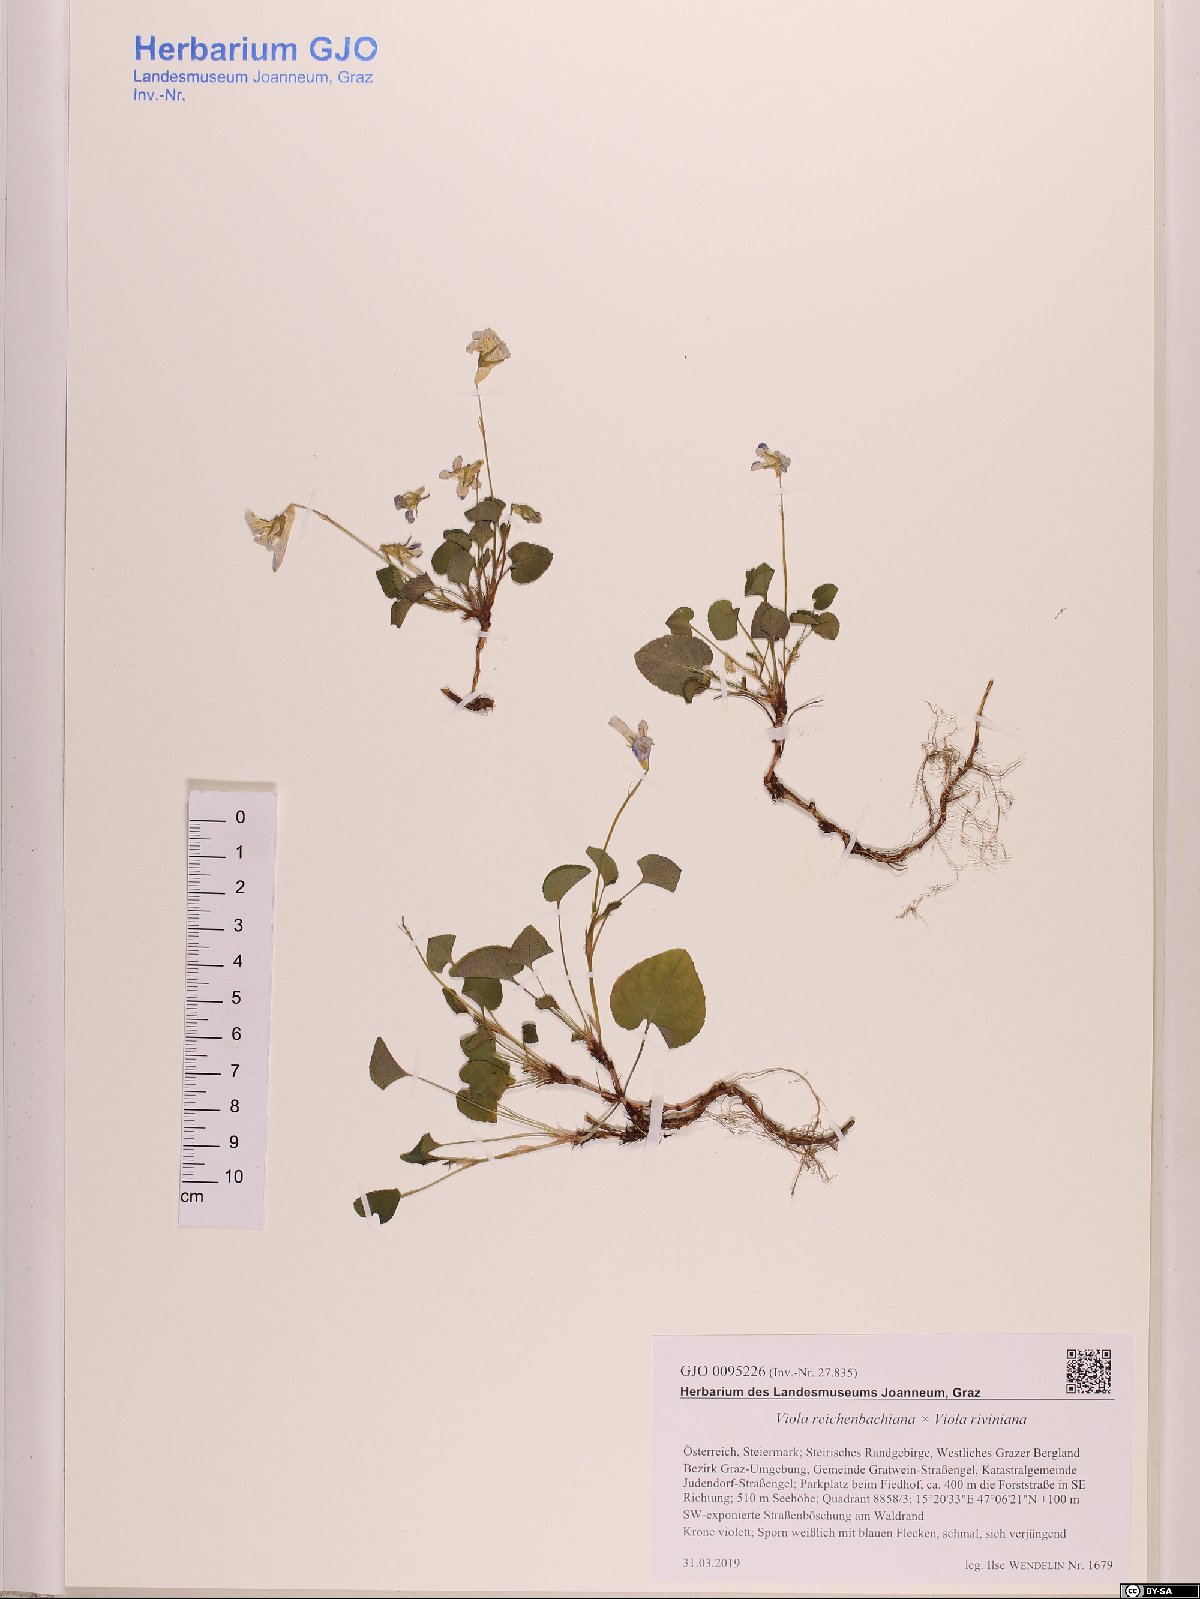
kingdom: Plantae
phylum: Tracheophyta
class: Magnoliopsida
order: Malpighiales
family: Violaceae
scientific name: Violaceae
